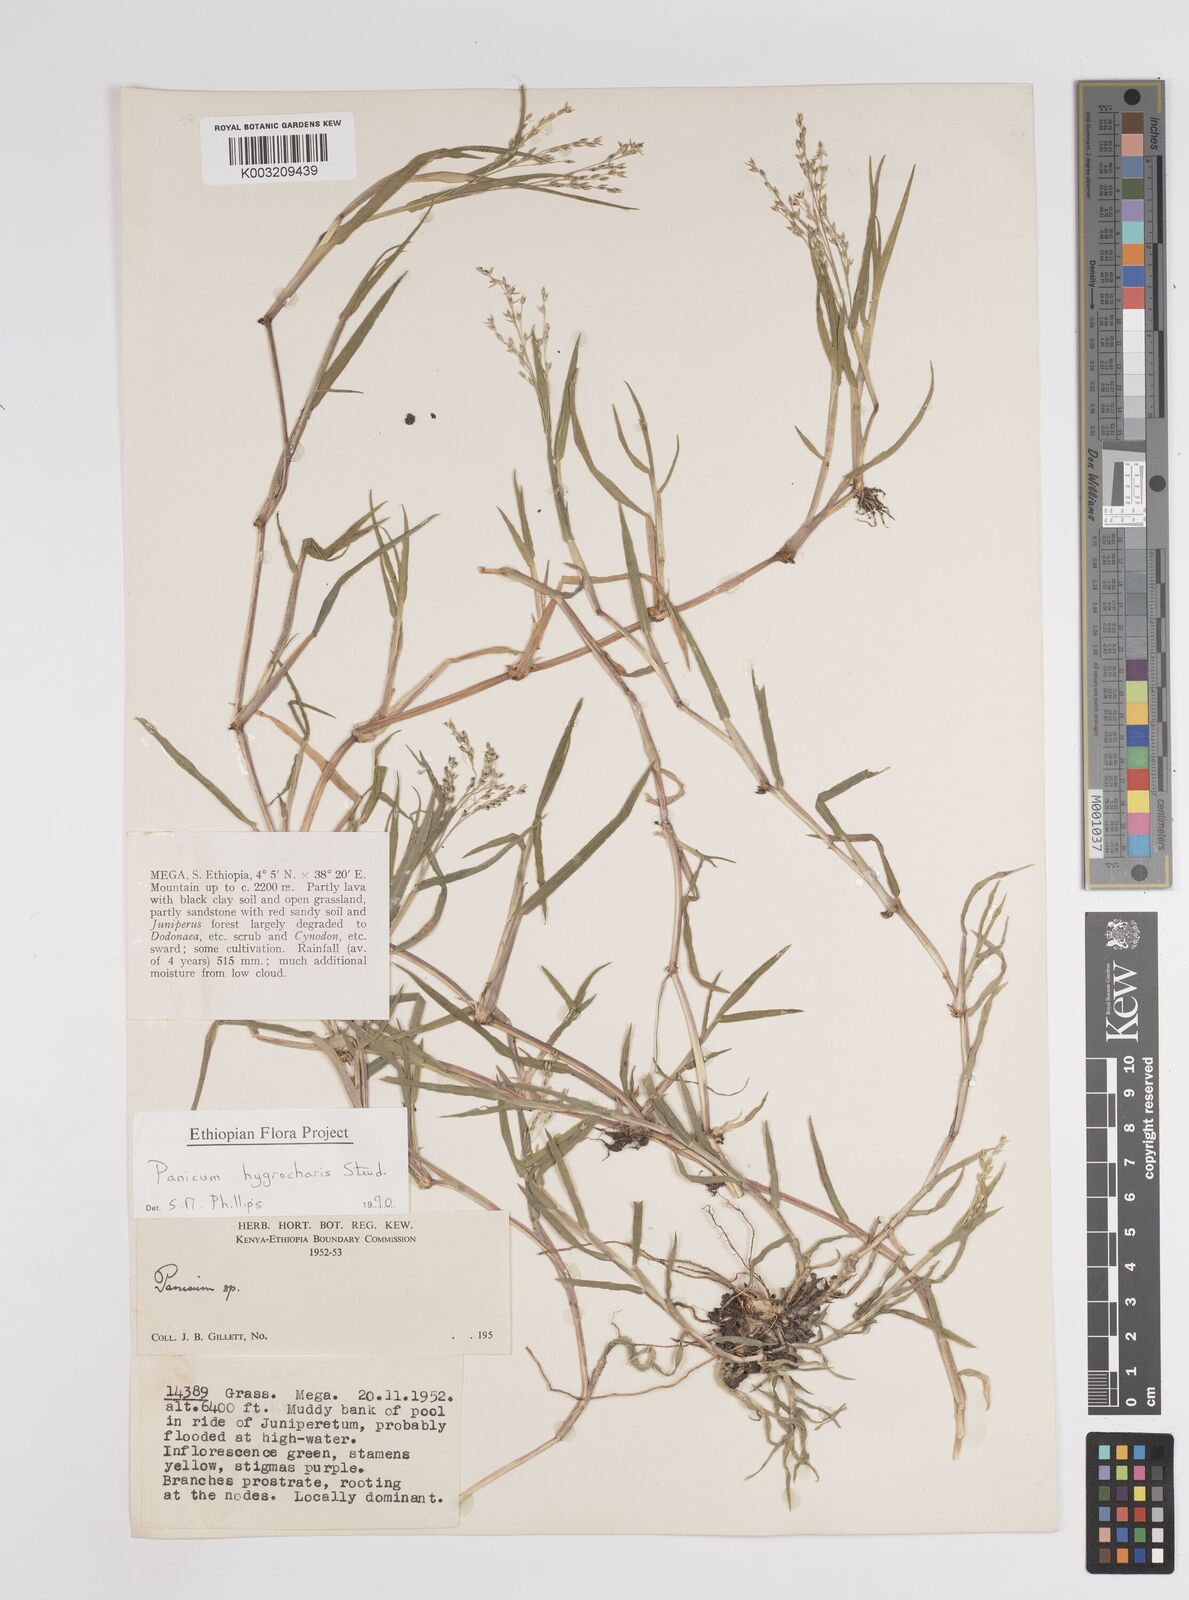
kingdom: Plantae
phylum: Tracheophyta
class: Liliopsida
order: Poales
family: Poaceae
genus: Panicum
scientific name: Panicum hygrocharis
